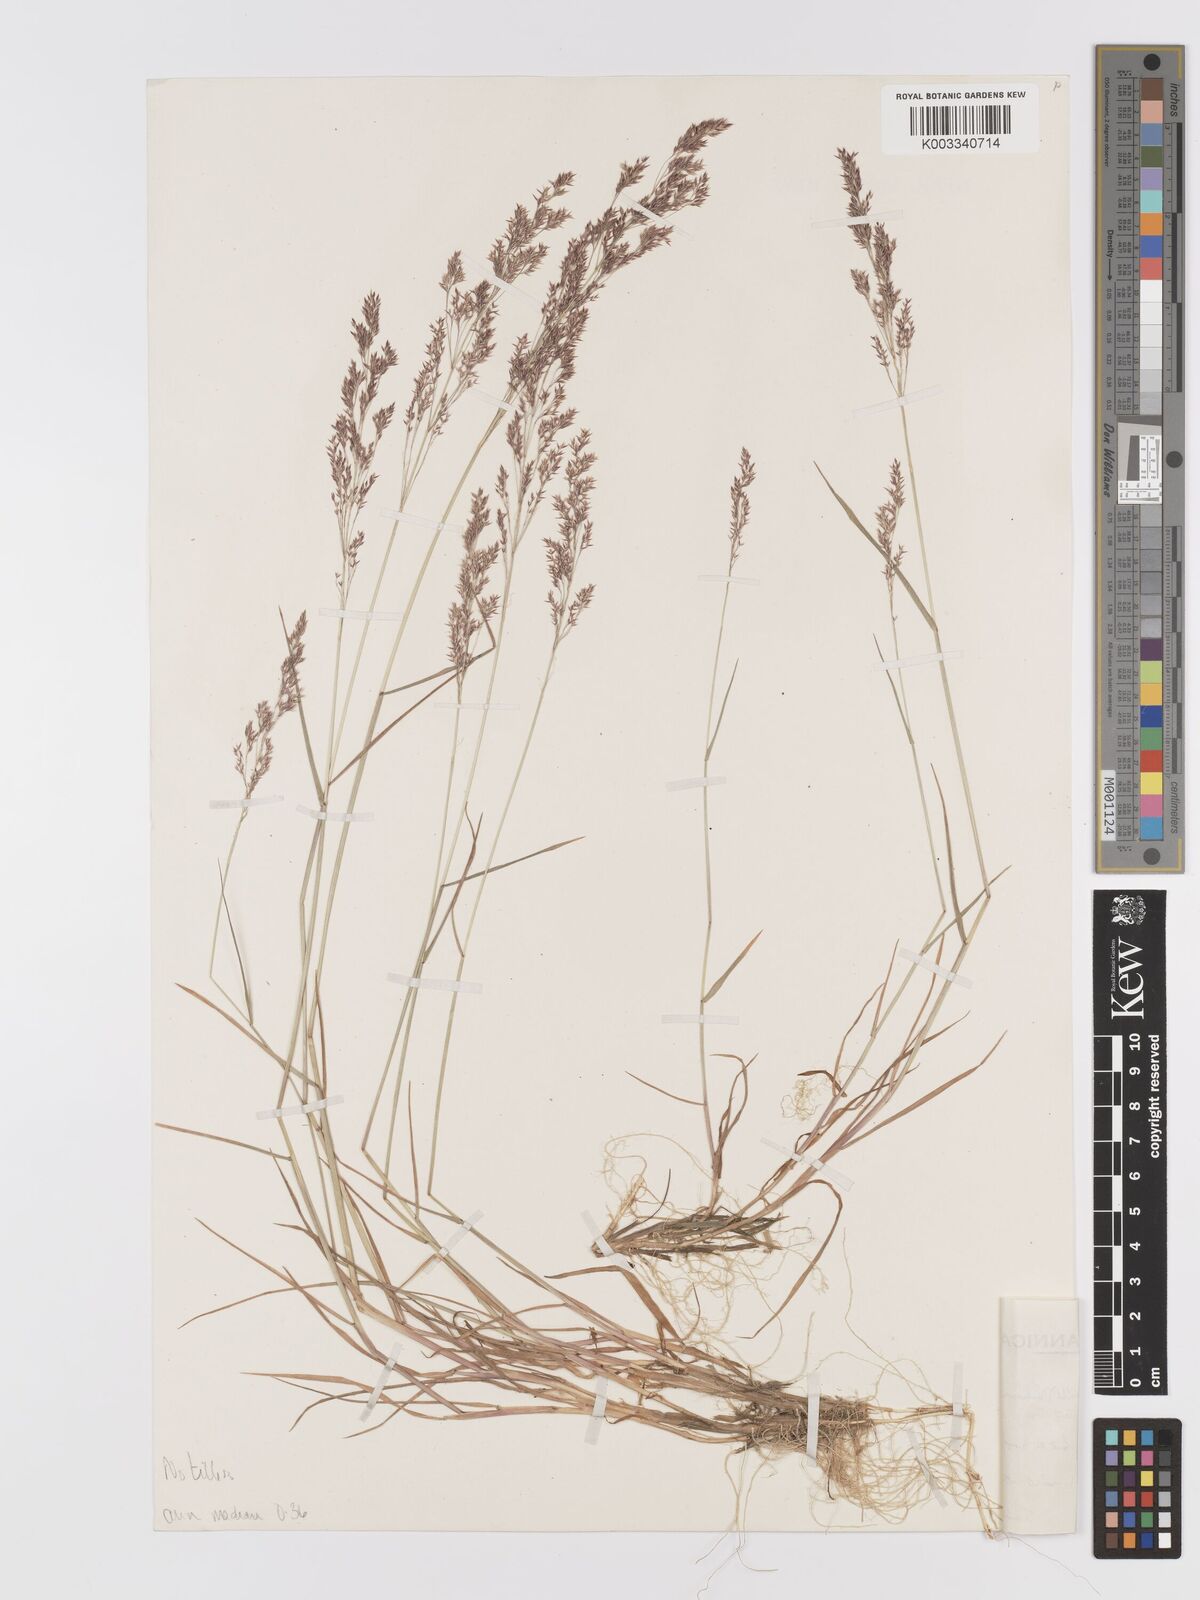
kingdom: Plantae
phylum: Tracheophyta
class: Liliopsida
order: Poales
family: Poaceae
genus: Agrostis
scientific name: Agrostis capillaris
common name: Colonial bentgrass
